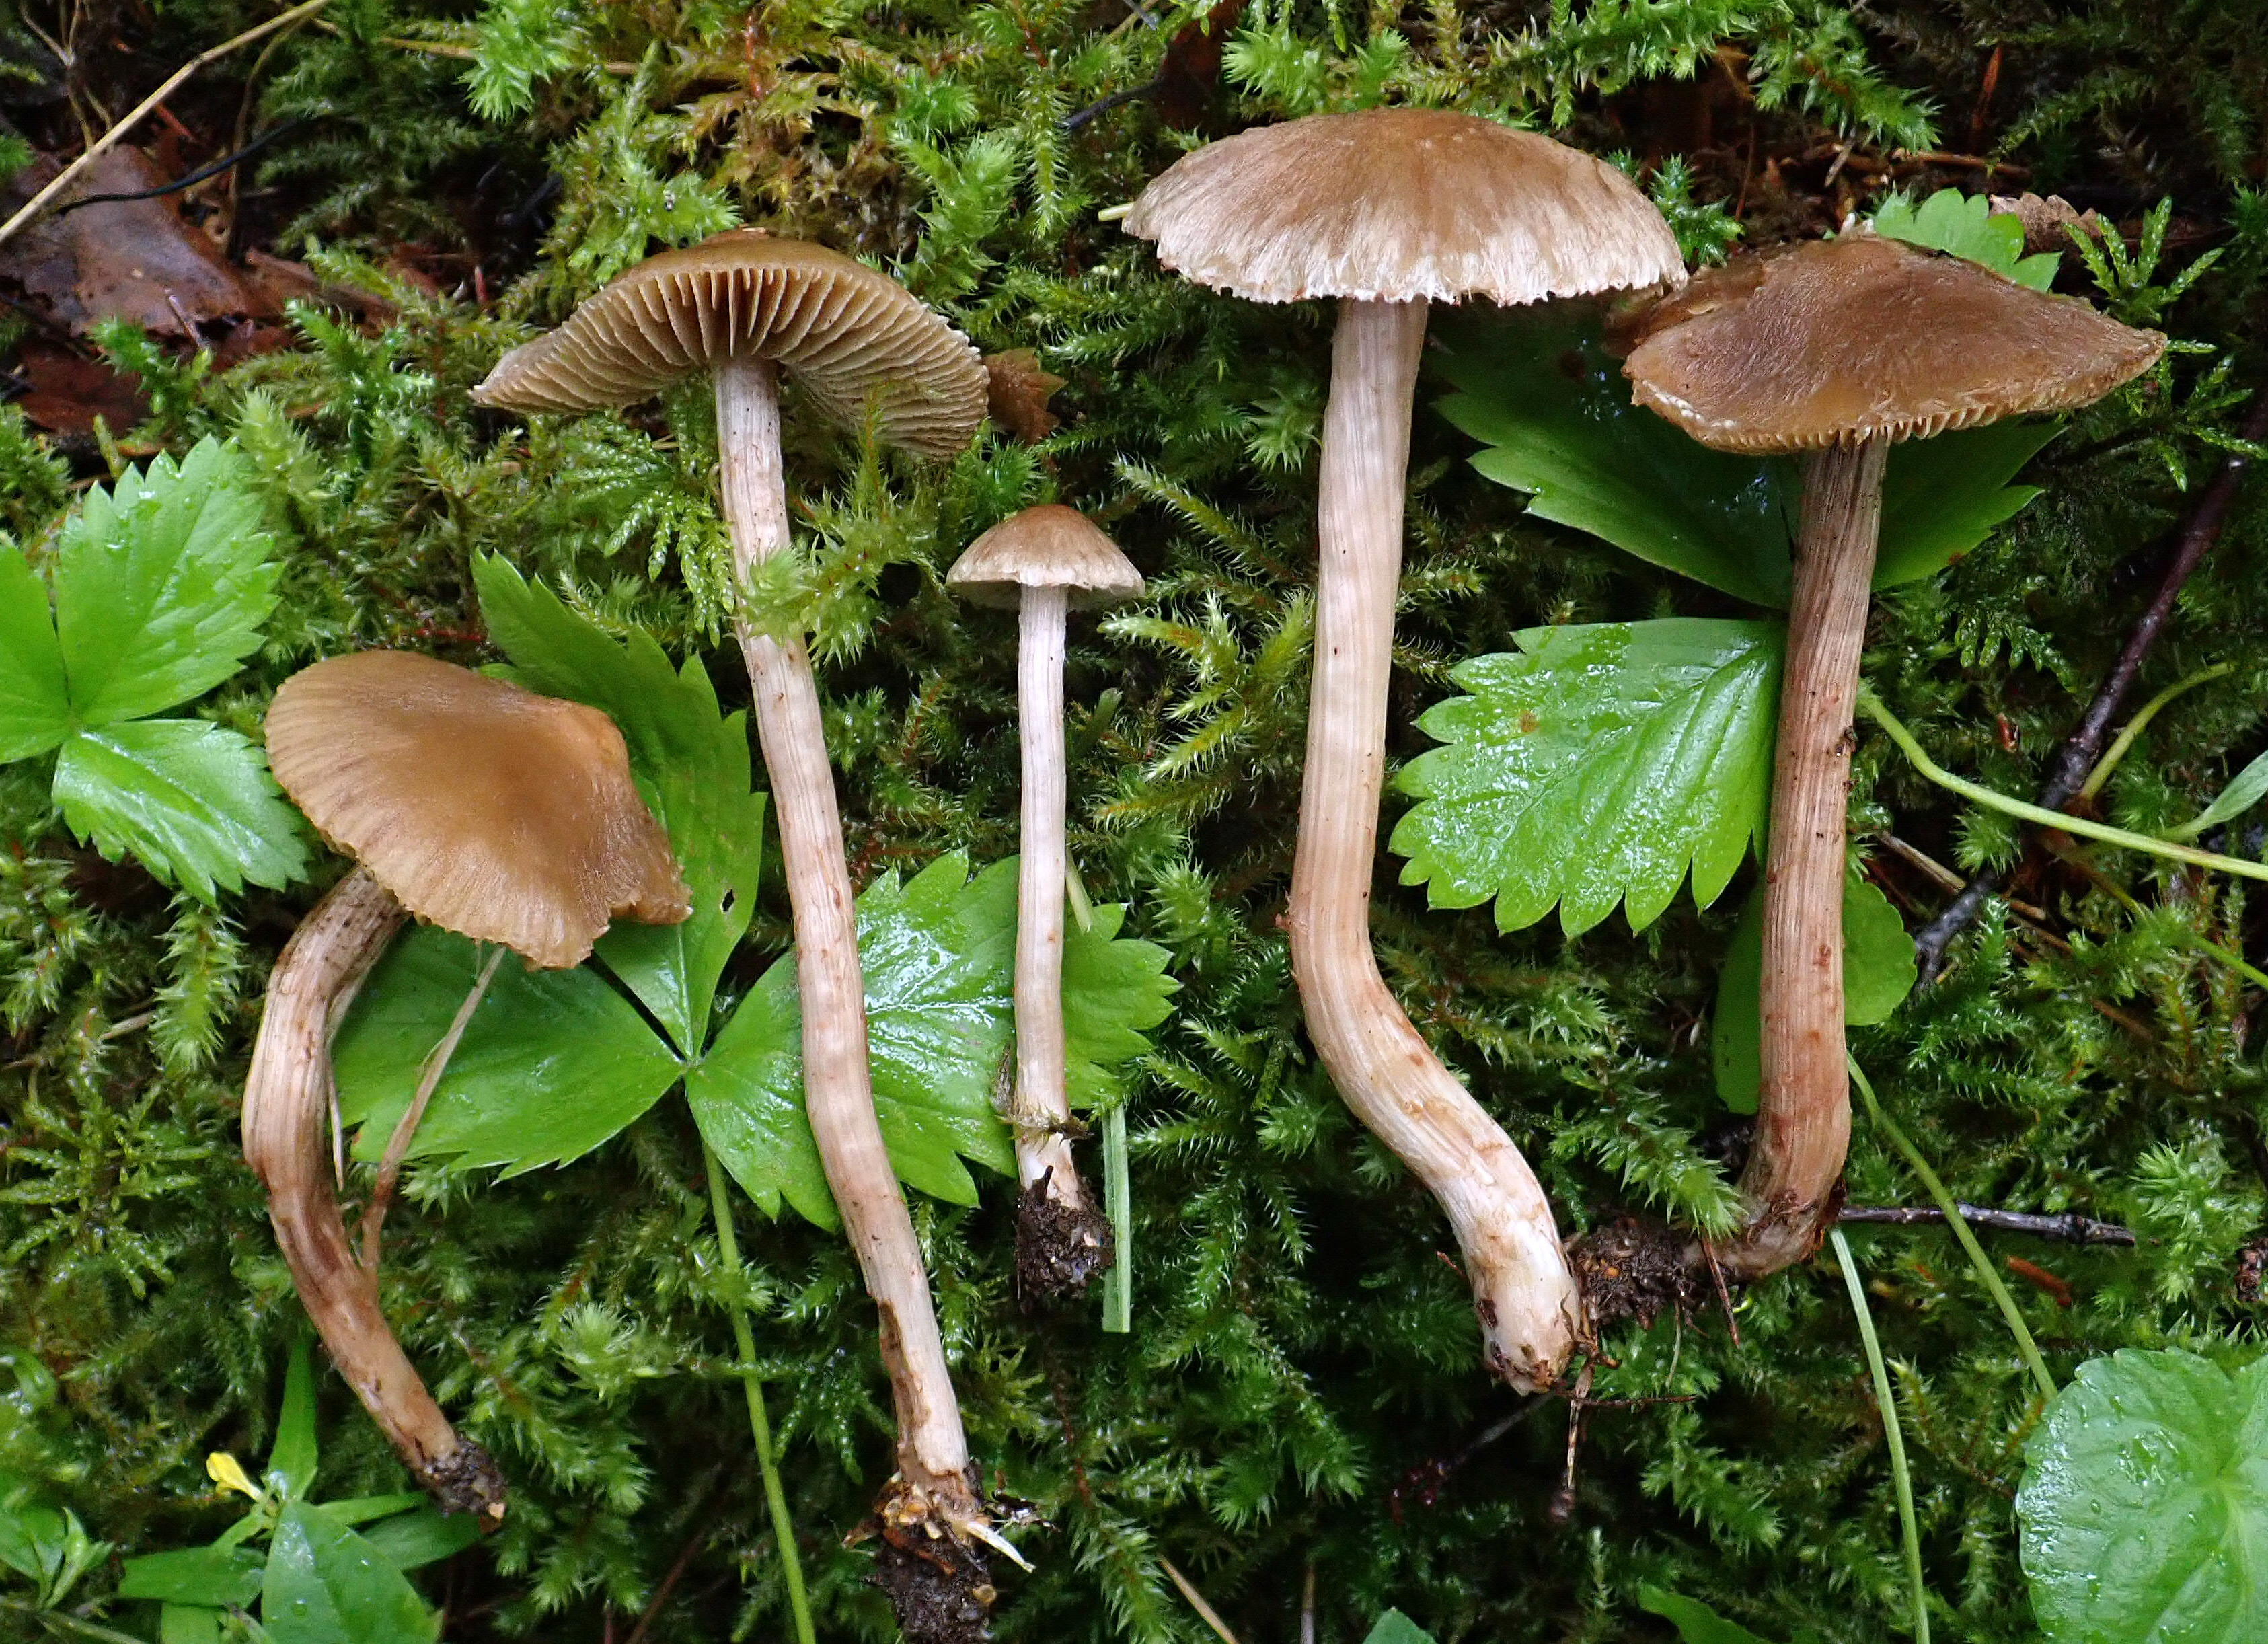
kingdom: Fungi
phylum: Basidiomycota
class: Agaricomycetes
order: Agaricales
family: Inocybaceae
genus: Inosperma
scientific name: Inosperma bongardii
